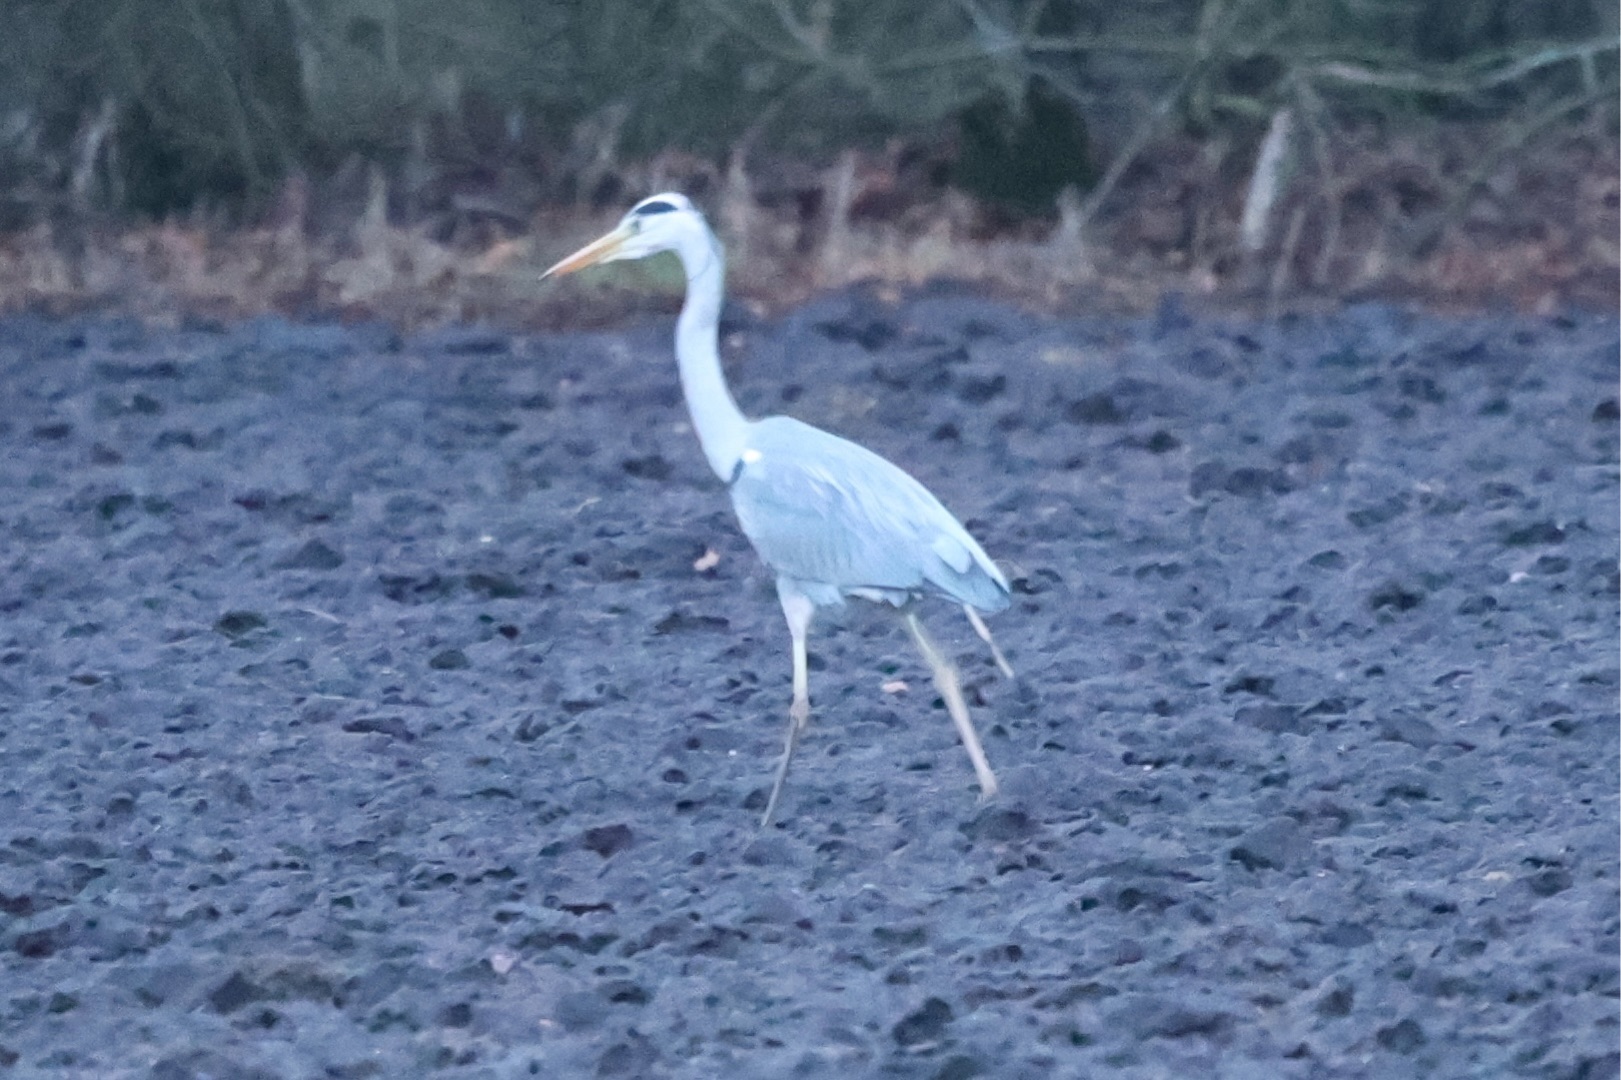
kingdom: Animalia
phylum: Chordata
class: Aves
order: Pelecaniformes
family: Ardeidae
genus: Ardea
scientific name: Ardea cinerea
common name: Fiskehejre
